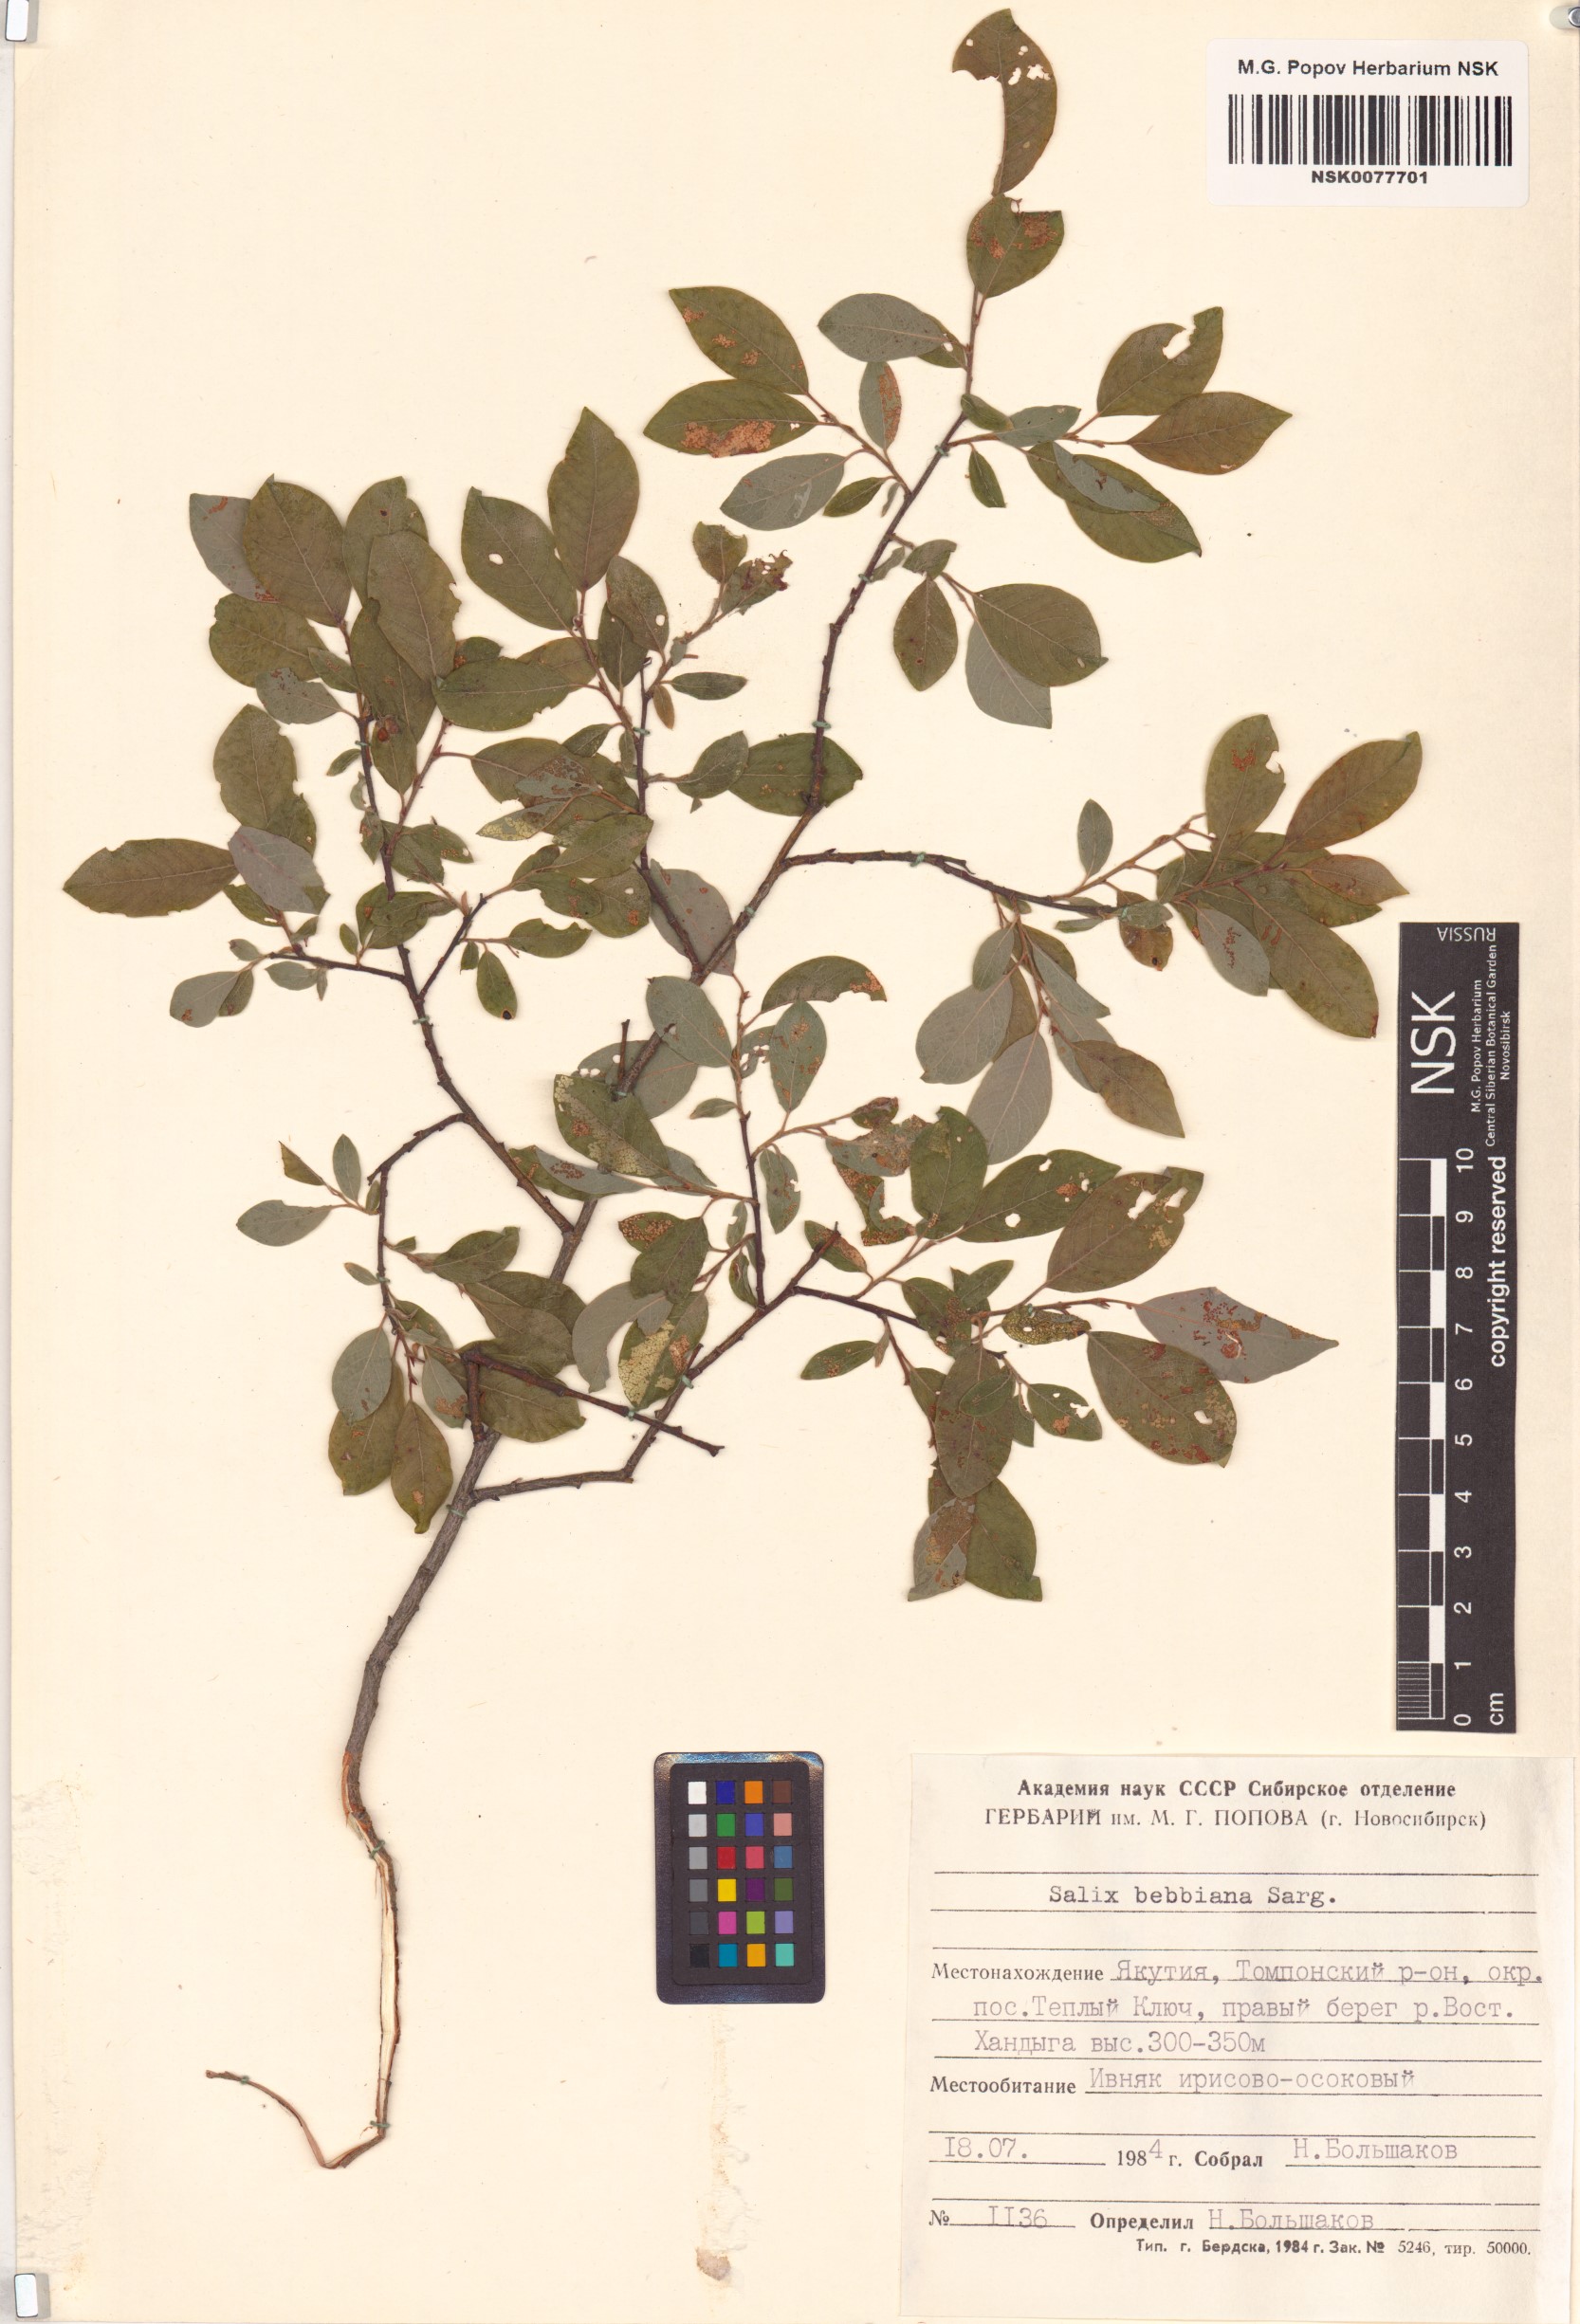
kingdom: Plantae
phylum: Tracheophyta
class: Magnoliopsida
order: Malpighiales
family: Salicaceae
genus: Salix
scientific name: Salix bebbiana
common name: Bebb's willow
